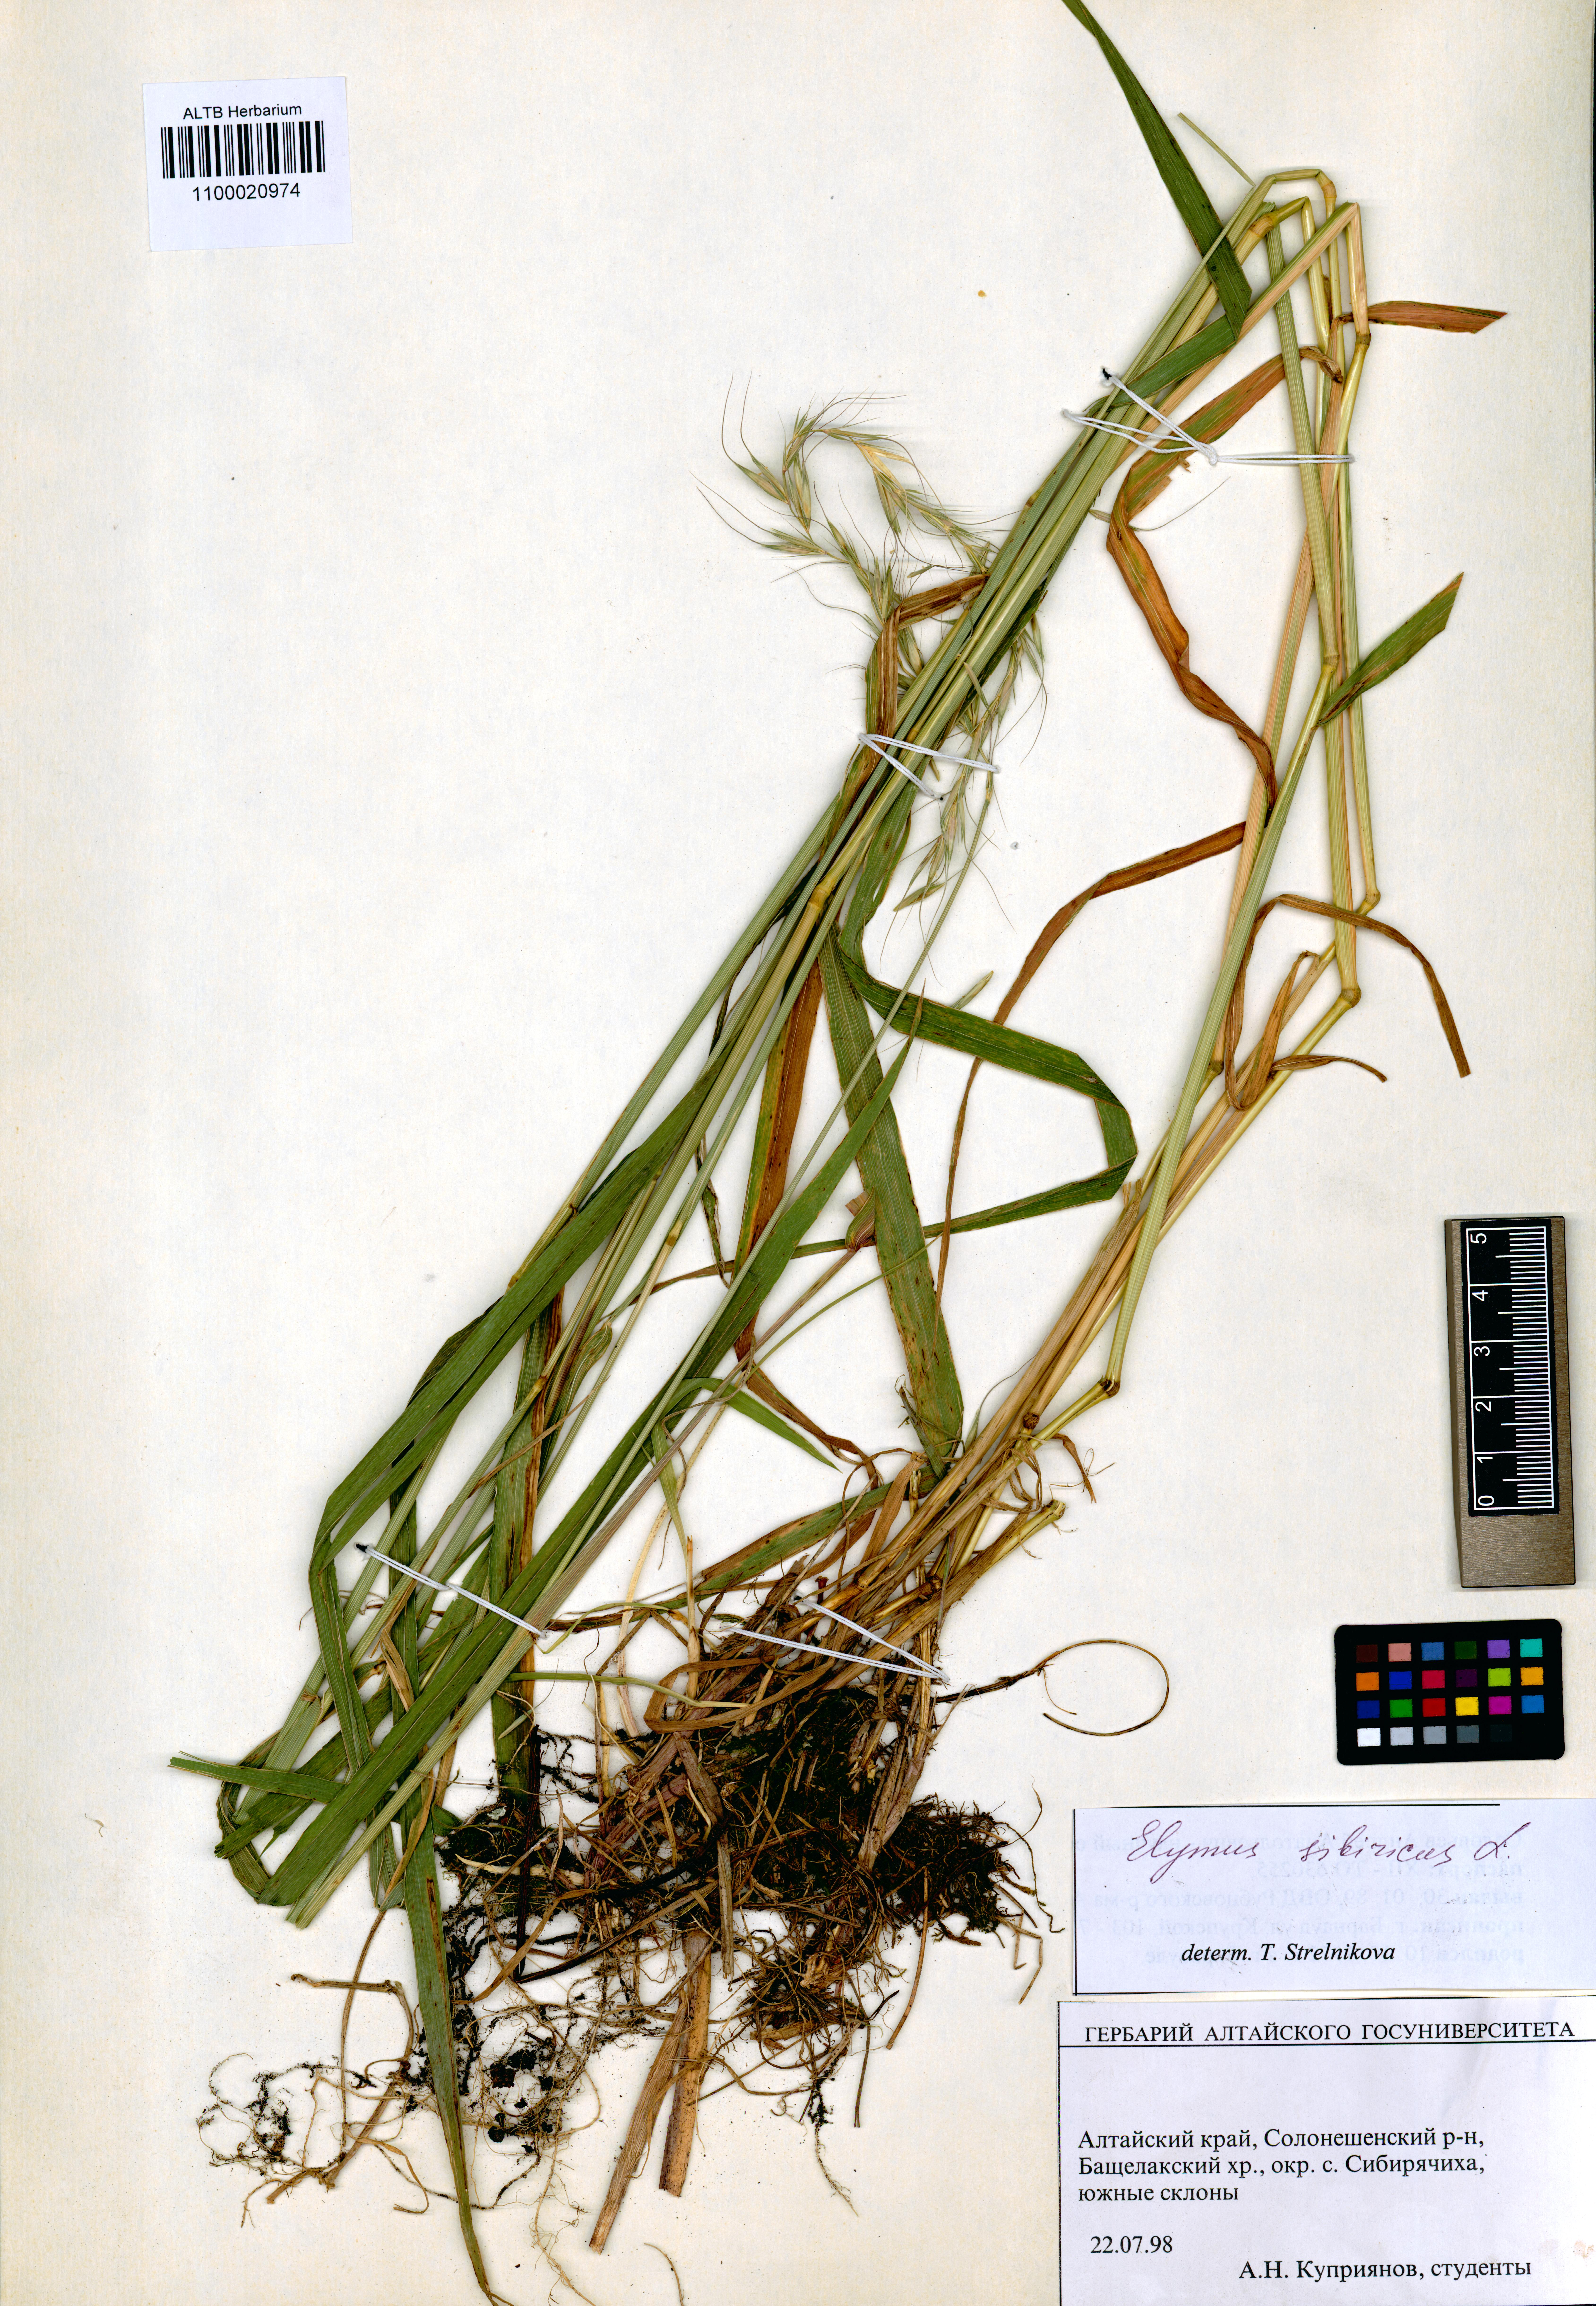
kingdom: Plantae
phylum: Tracheophyta
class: Liliopsida
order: Poales
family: Poaceae
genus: Elymus
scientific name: Elymus sibiricus
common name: Siberian wildrye
